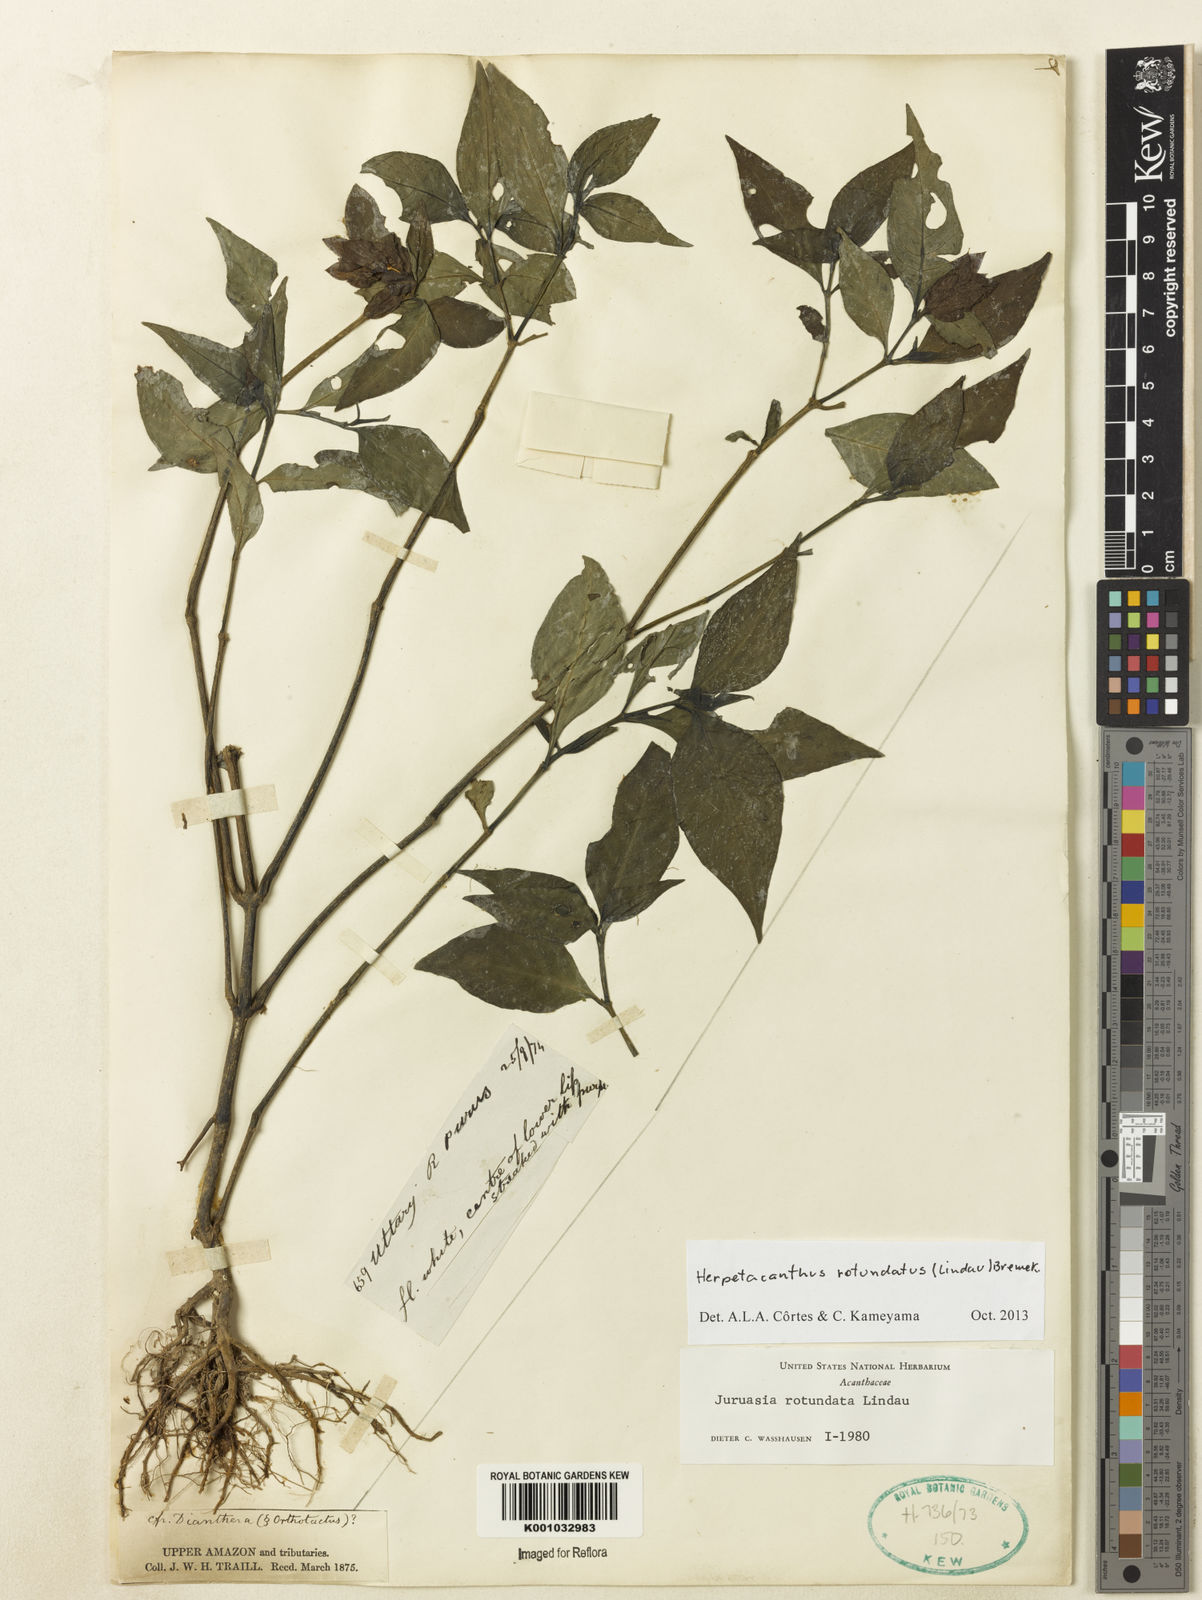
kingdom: Plantae
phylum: Tracheophyta
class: Magnoliopsida
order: Lamiales
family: Acanthaceae
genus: Herpetacanthus
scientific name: Herpetacanthus rotundatus
